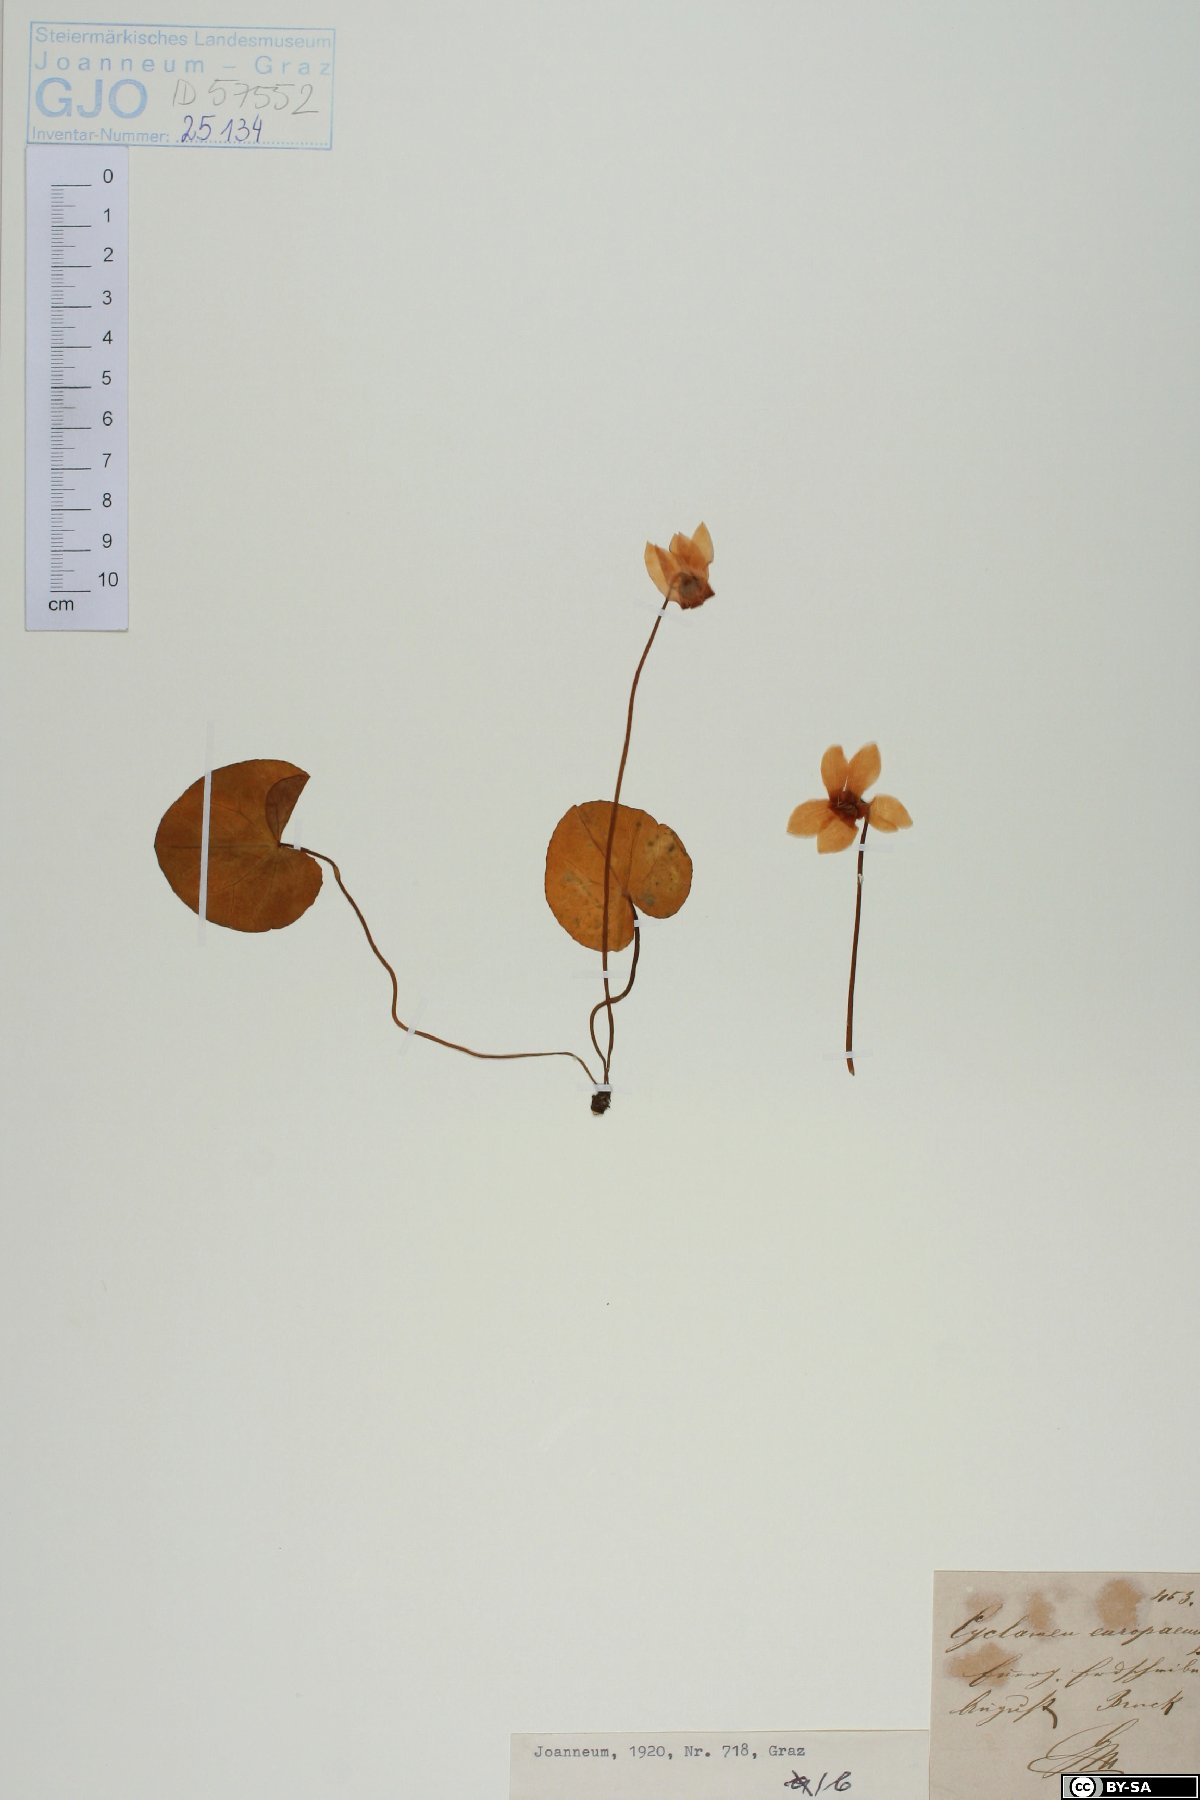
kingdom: Plantae
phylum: Tracheophyta
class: Magnoliopsida
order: Ericales
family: Primulaceae
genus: Cyclamen
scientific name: Cyclamen purpurascens
